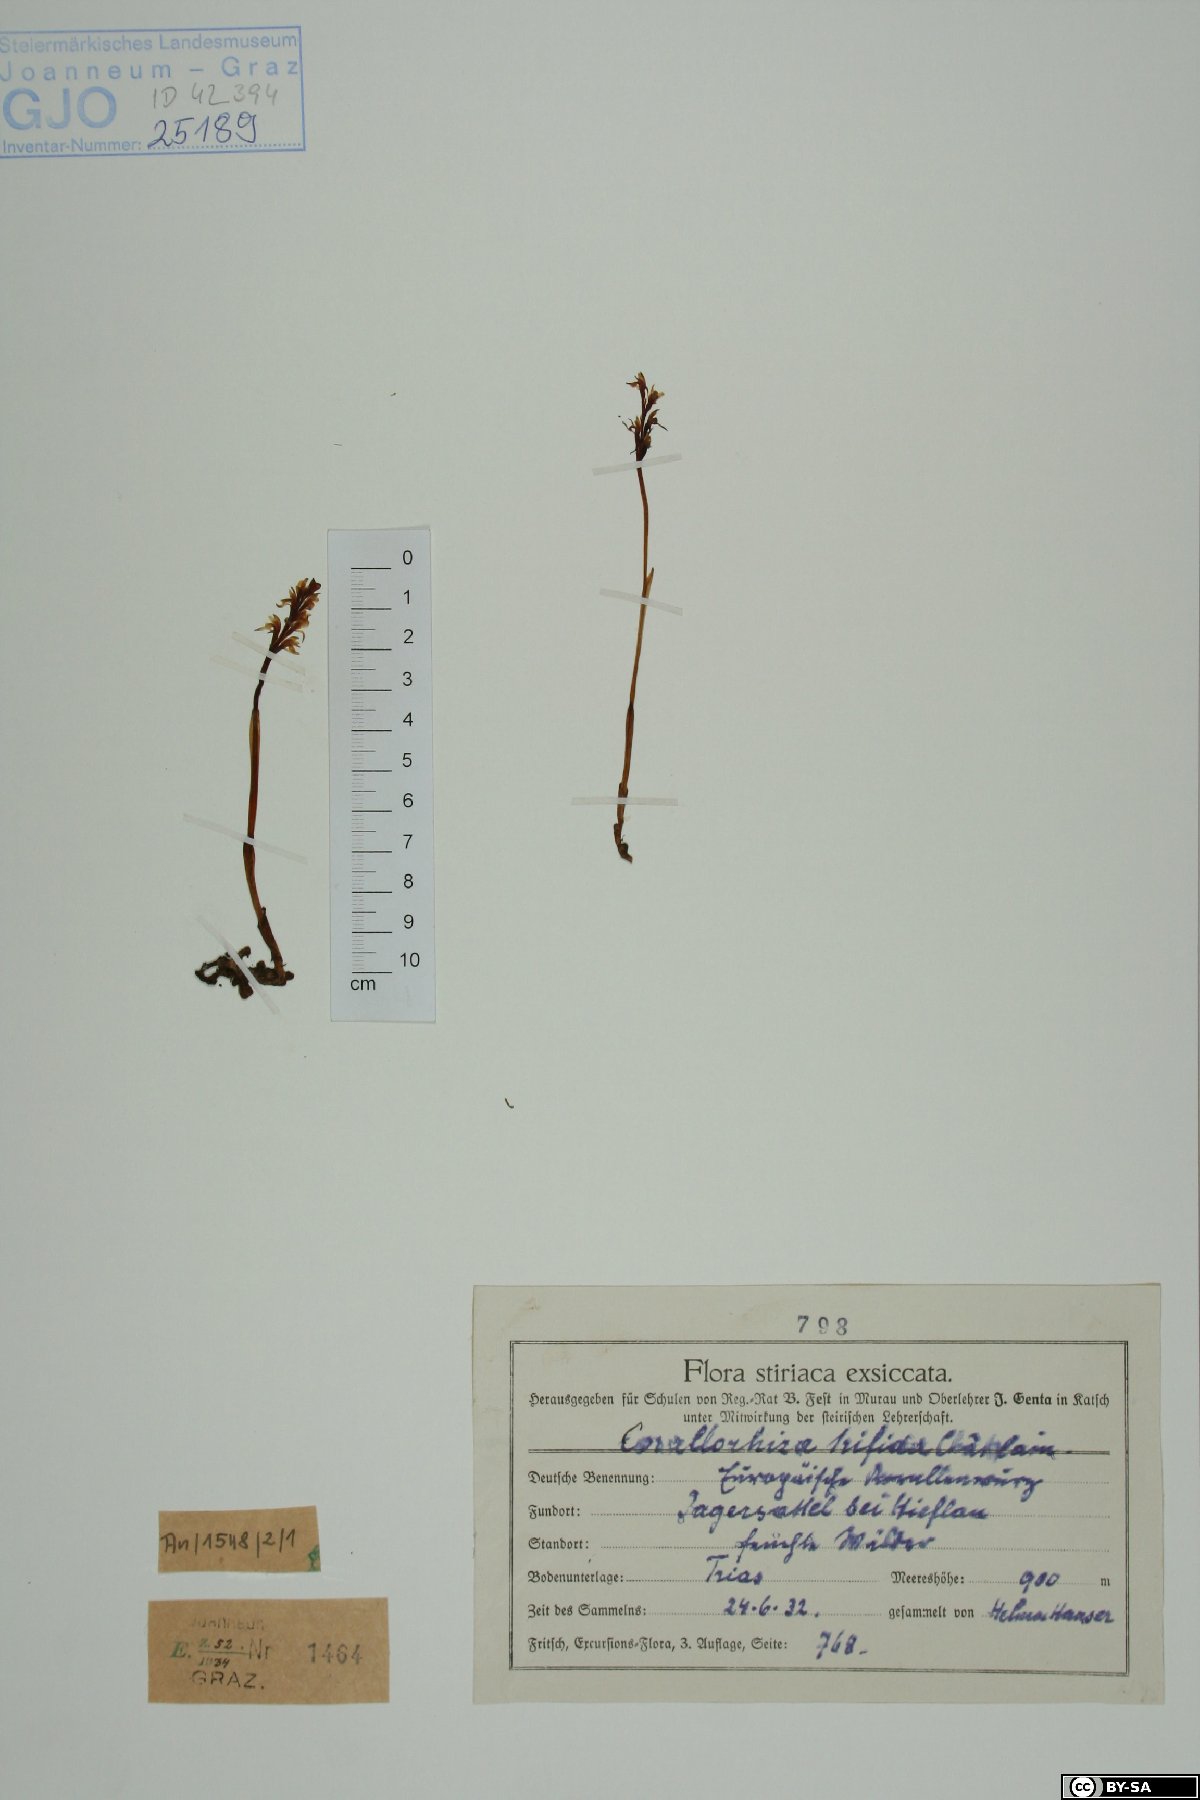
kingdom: Plantae
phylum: Tracheophyta
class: Liliopsida
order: Asparagales
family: Orchidaceae
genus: Corallorhiza
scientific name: Corallorhiza trifida
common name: Yellow coralroot
